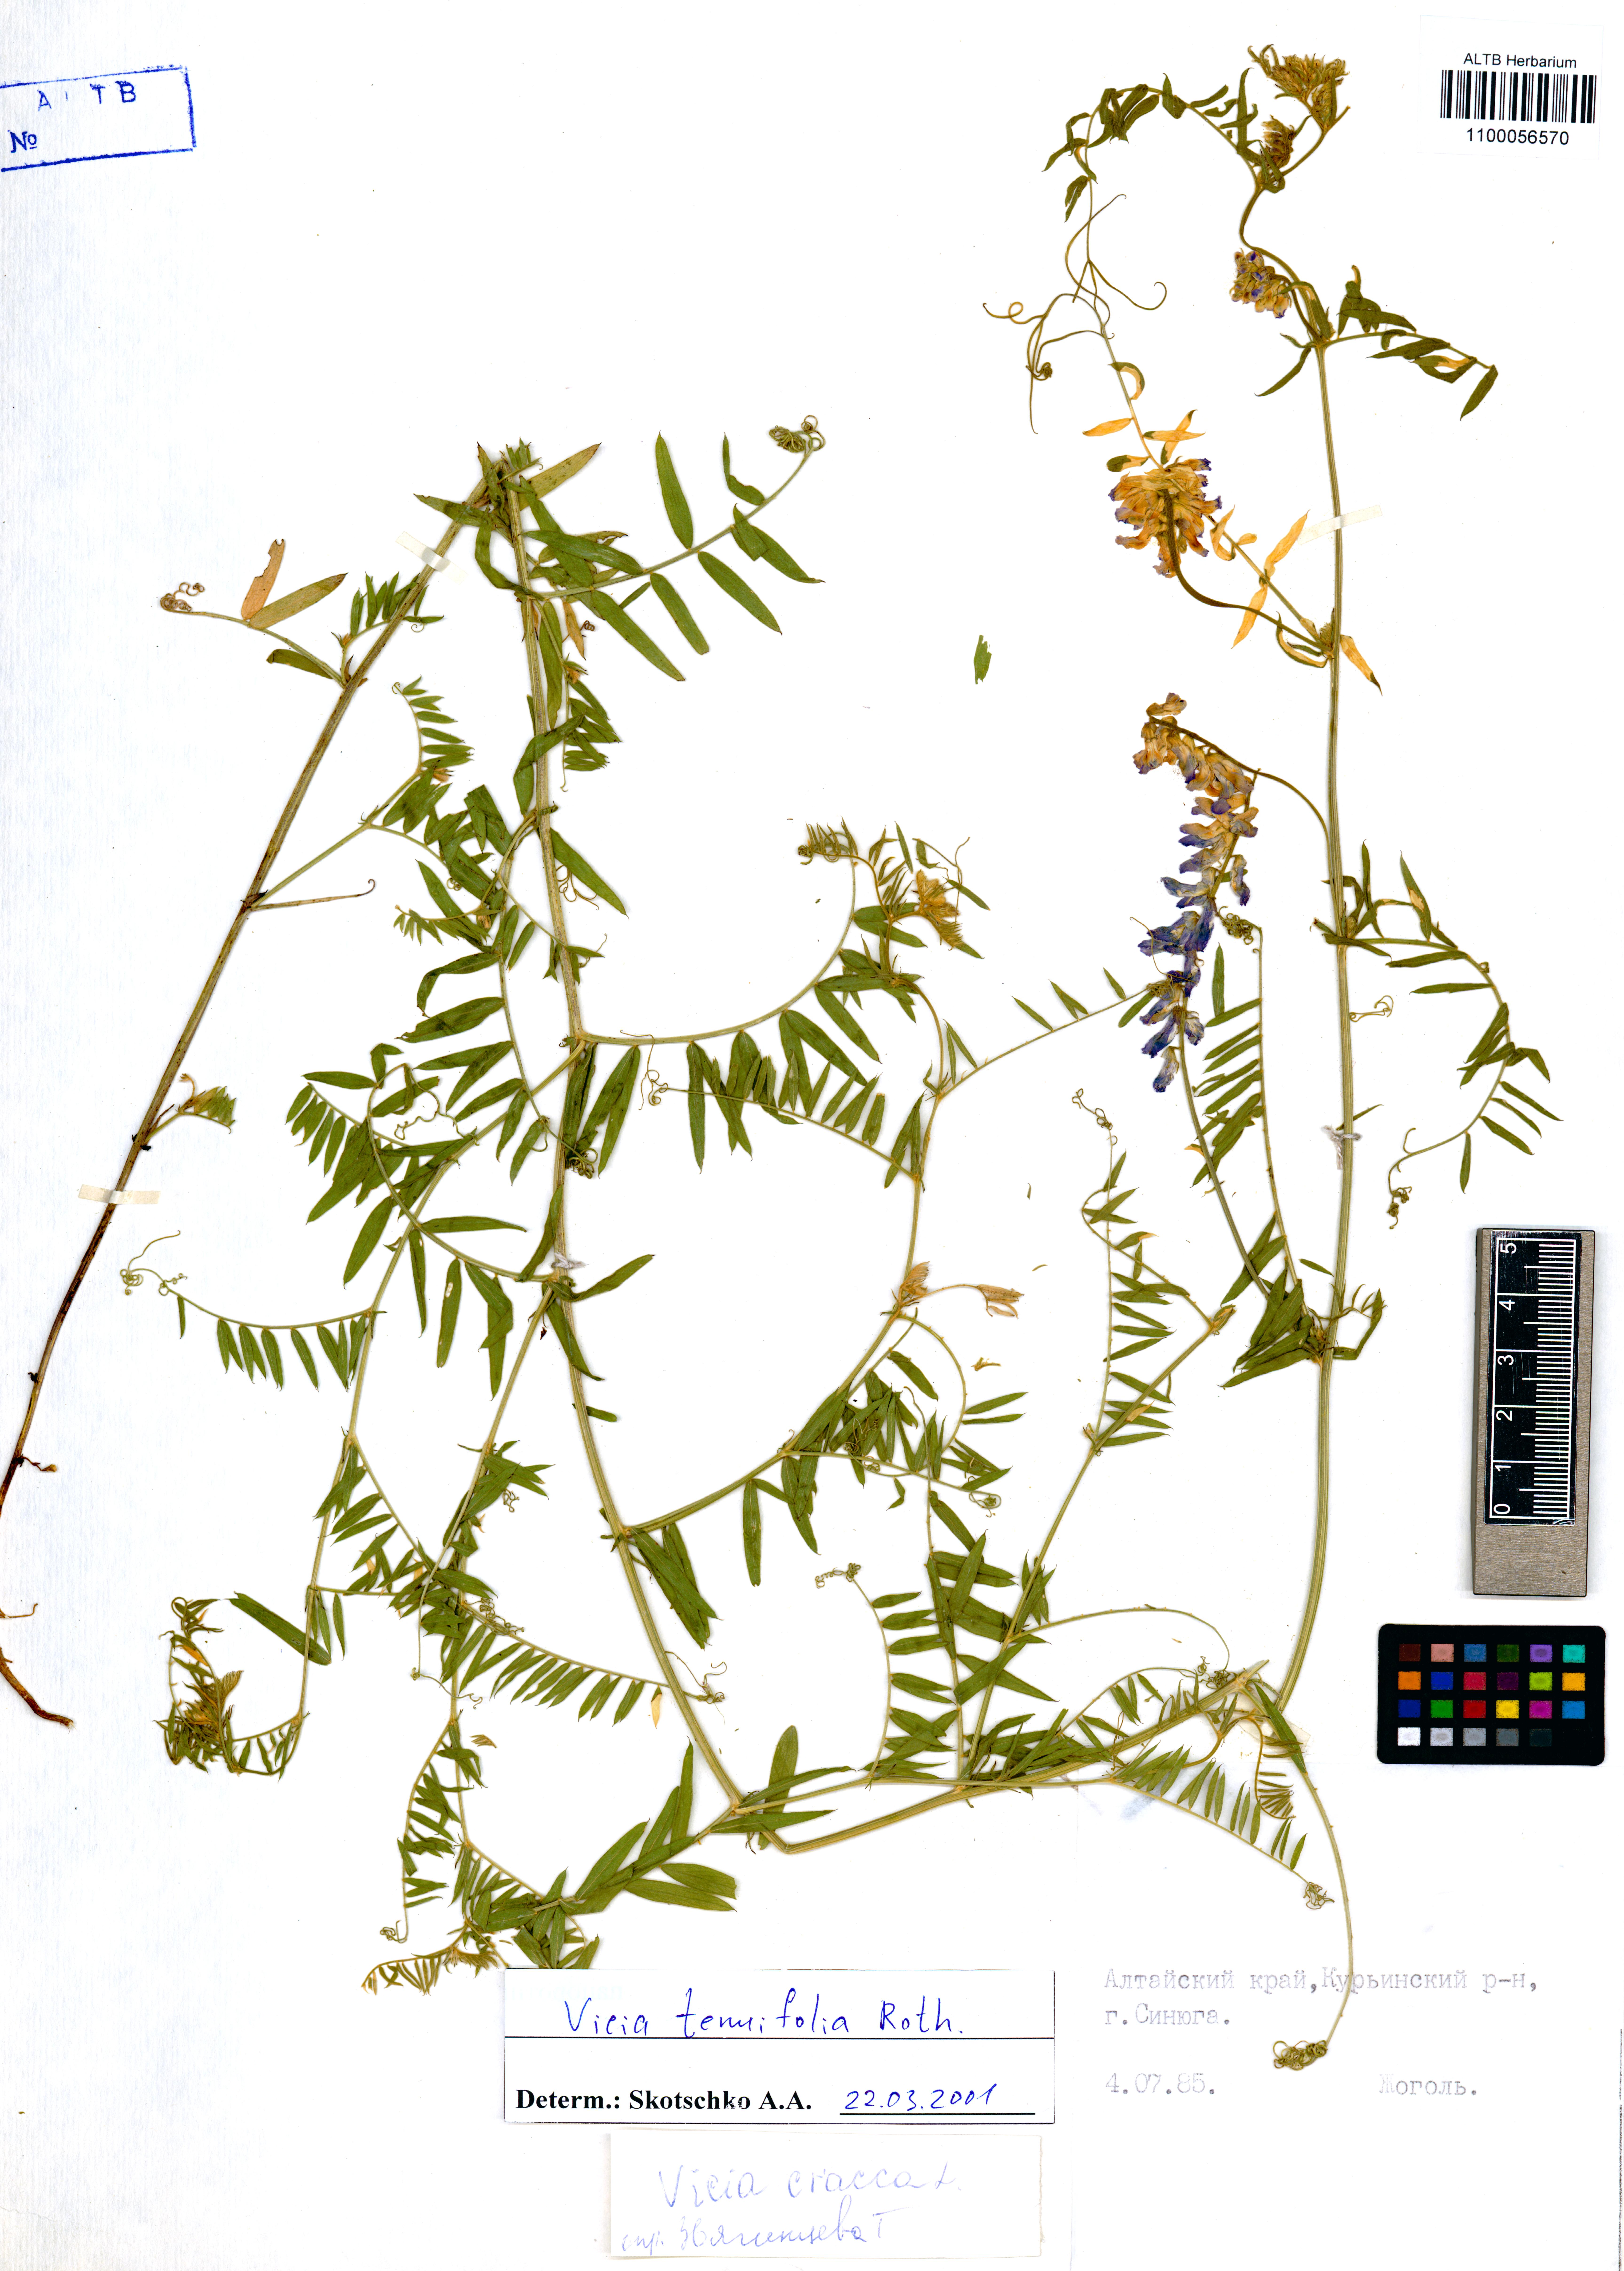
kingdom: Plantae
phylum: Tracheophyta
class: Magnoliopsida
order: Fabales
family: Fabaceae
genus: Vicia
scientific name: Vicia tenuifolia
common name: Fine-leaved vetch
